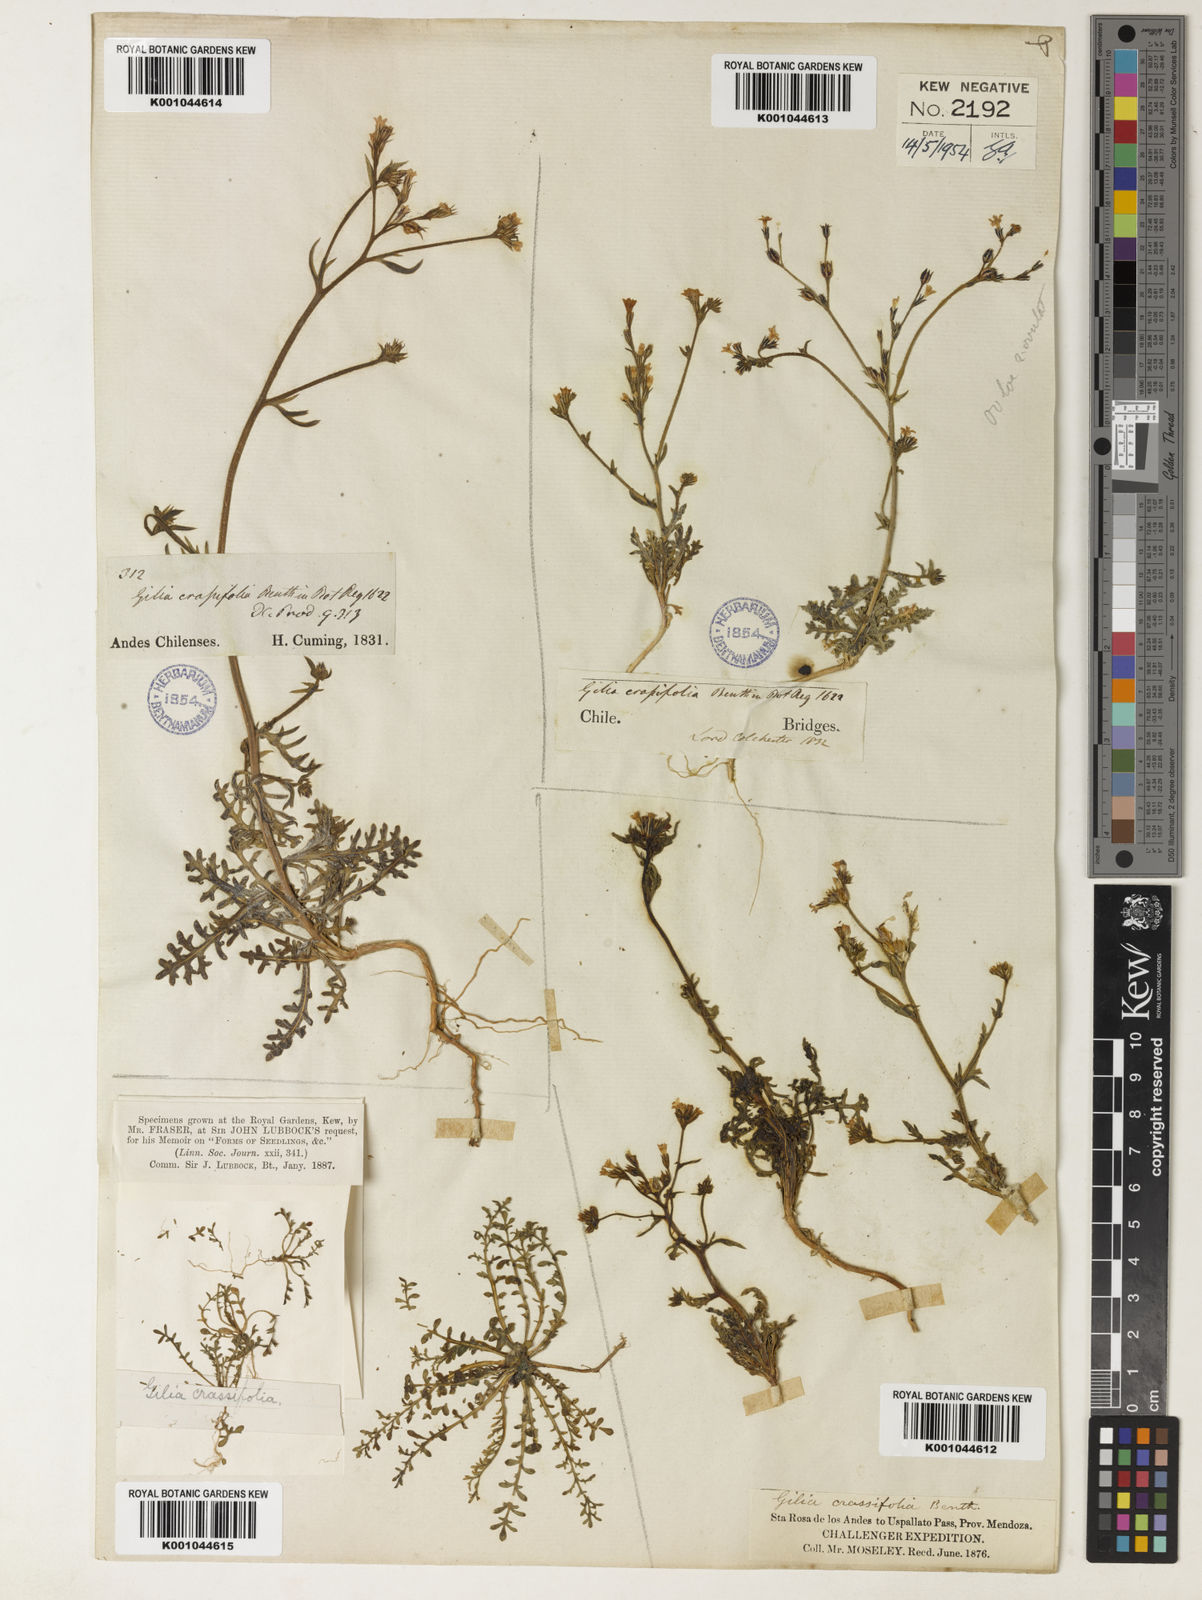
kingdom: Plantae
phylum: Tracheophyta
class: Magnoliopsida
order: Ericales
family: Polemoniaceae
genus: Gilia
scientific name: Gilia crassifolia
